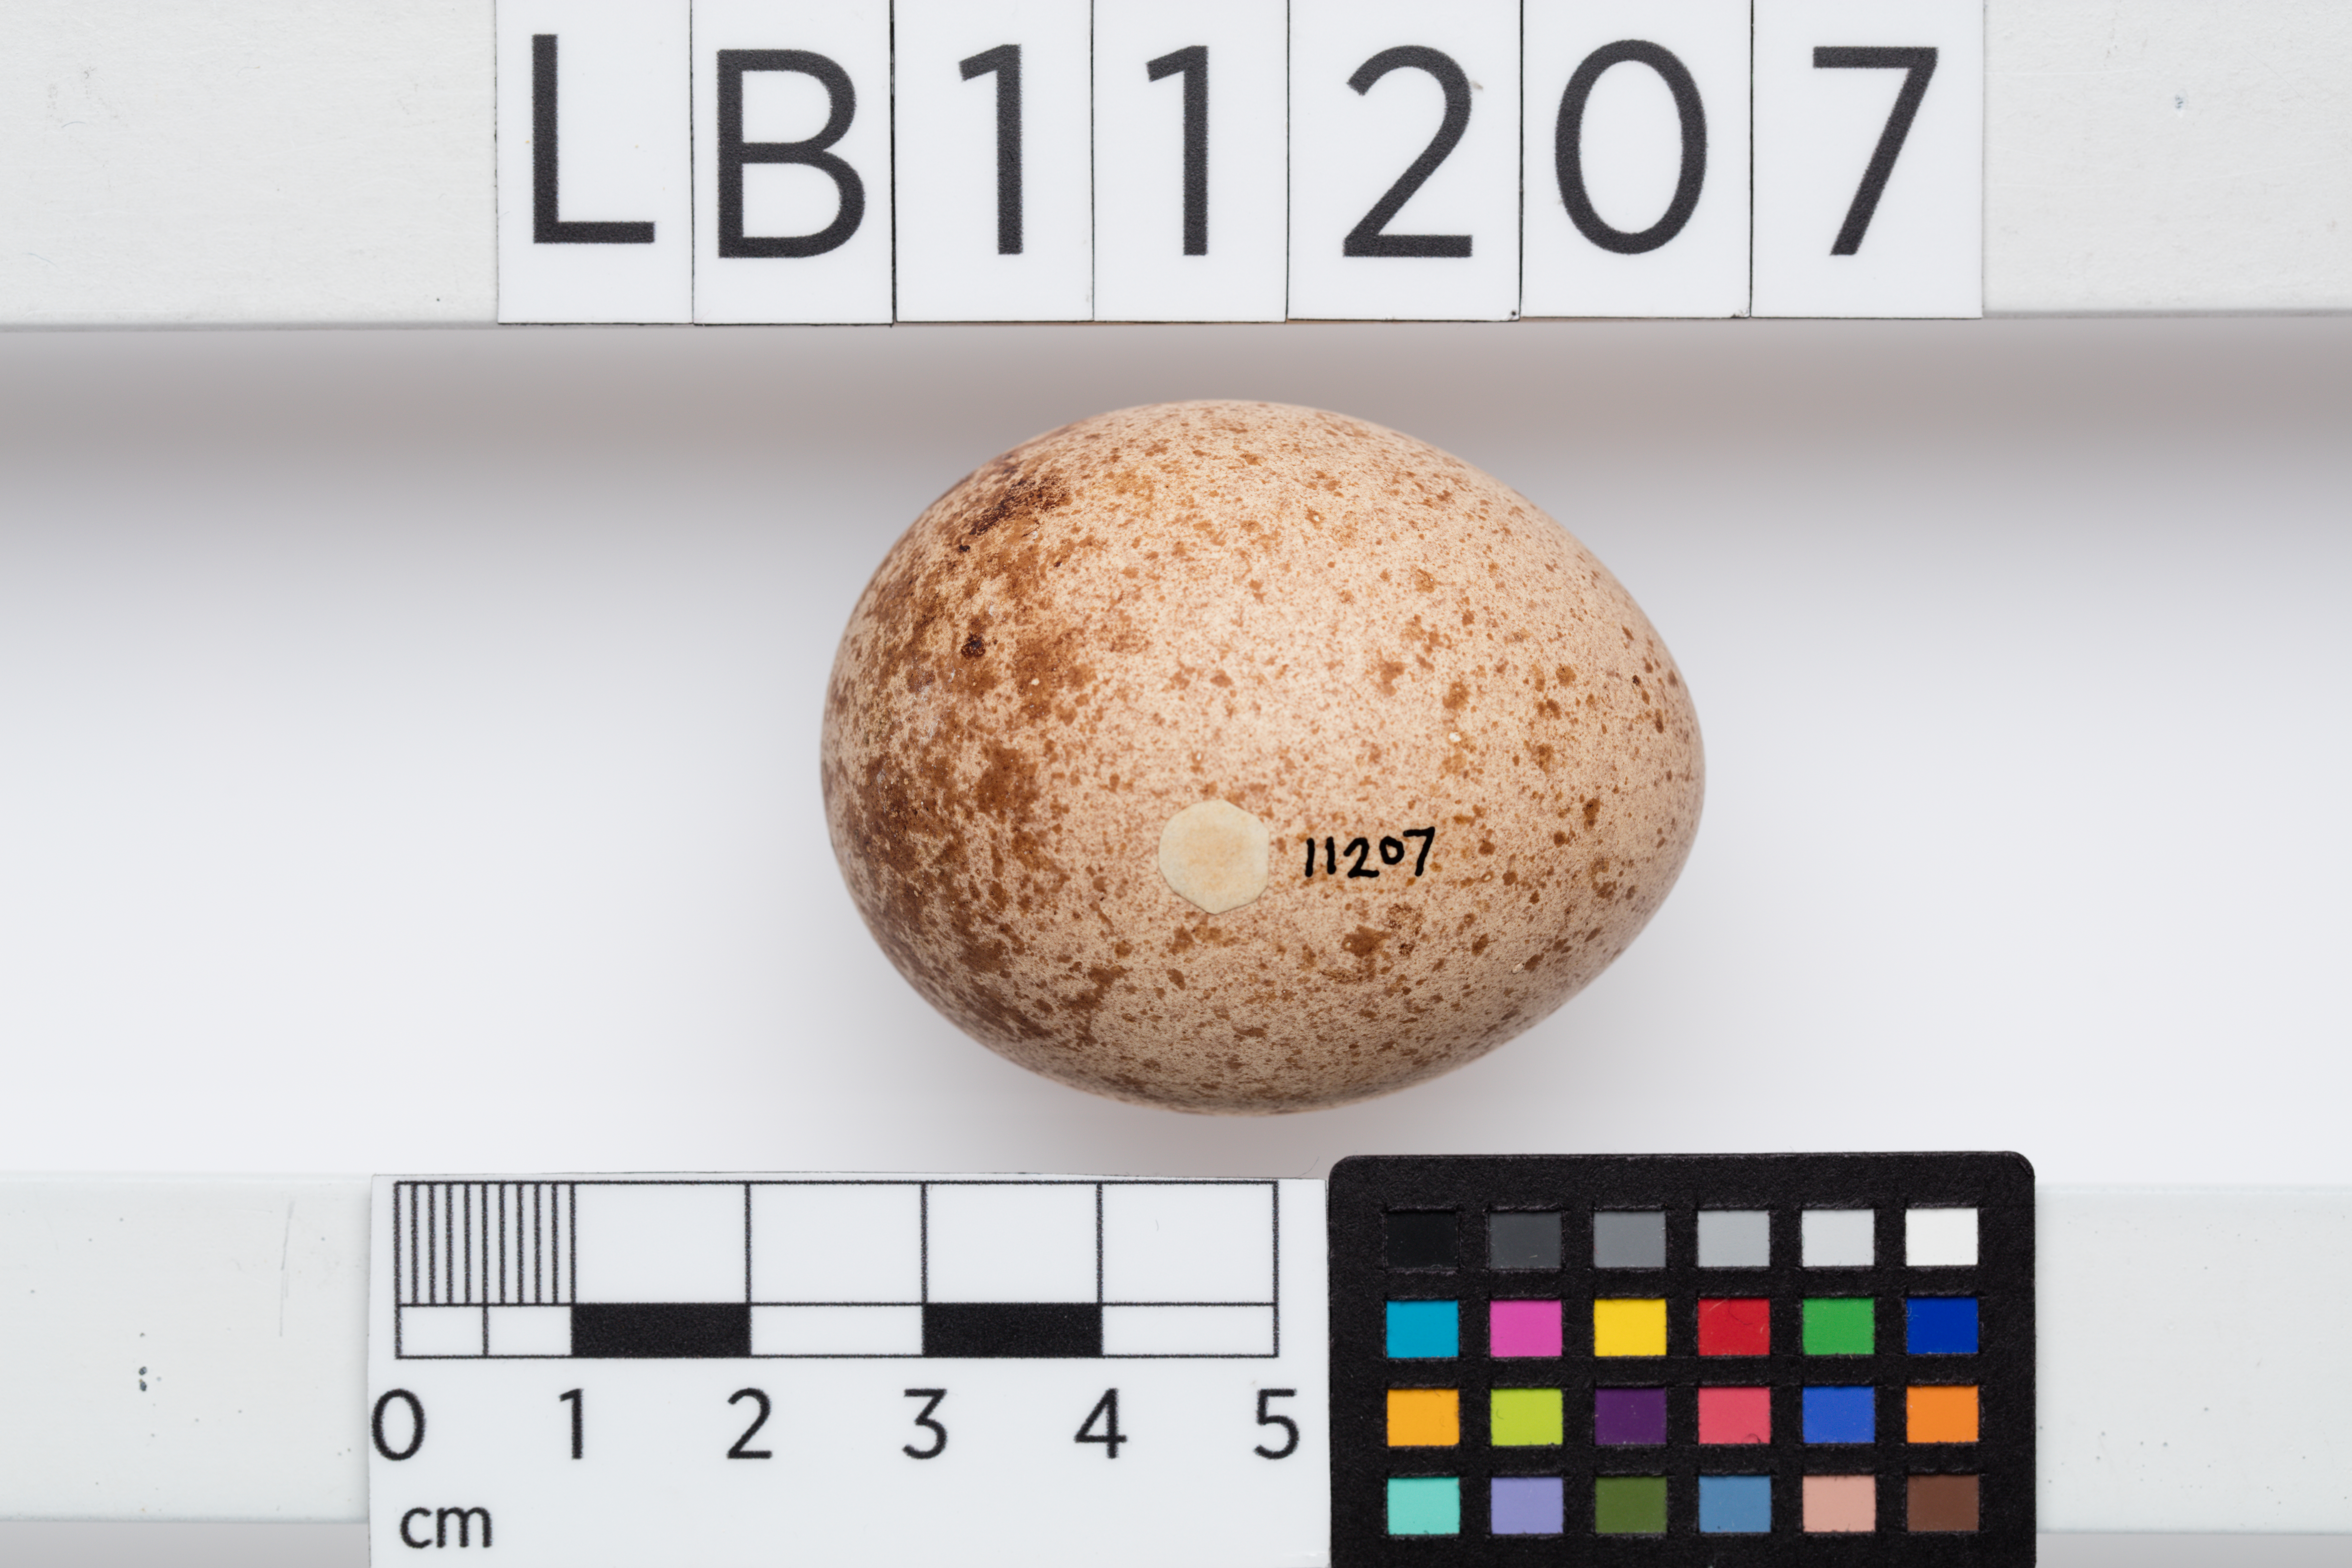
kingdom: Animalia
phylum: Chordata
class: Aves
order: Falconiformes
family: Falconidae
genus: Falco
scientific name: Falco peregrinus
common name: Peregrine falcon
